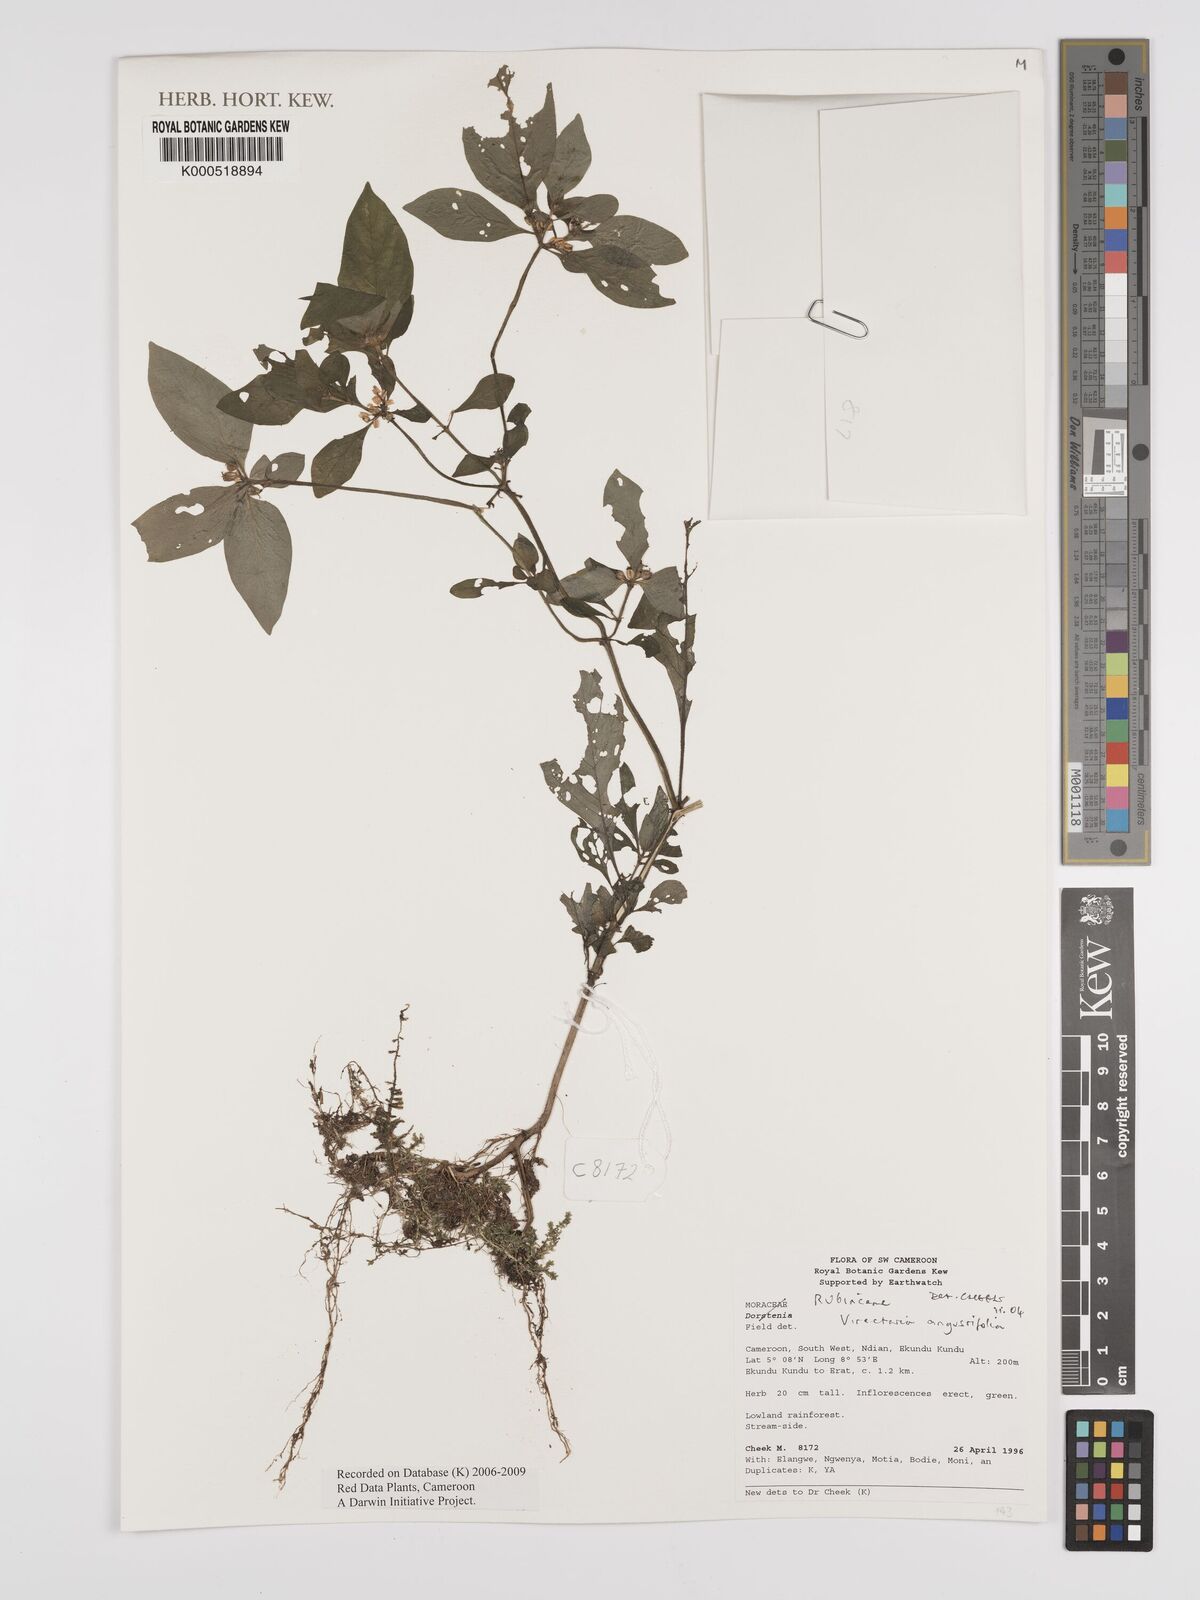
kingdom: Plantae
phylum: Tracheophyta
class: Magnoliopsida
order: Gentianales
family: Rubiaceae
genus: Virectaria
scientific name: Virectaria angustifolia
